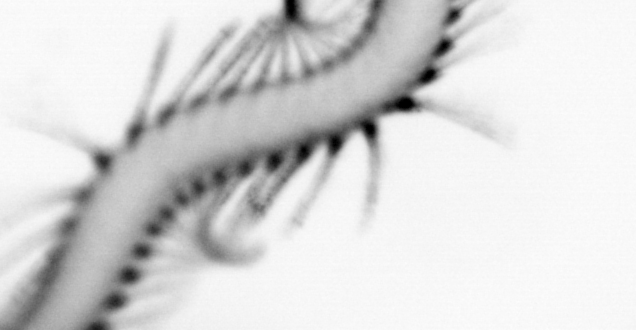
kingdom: Animalia
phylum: Annelida
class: Polychaeta
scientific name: Polychaeta
